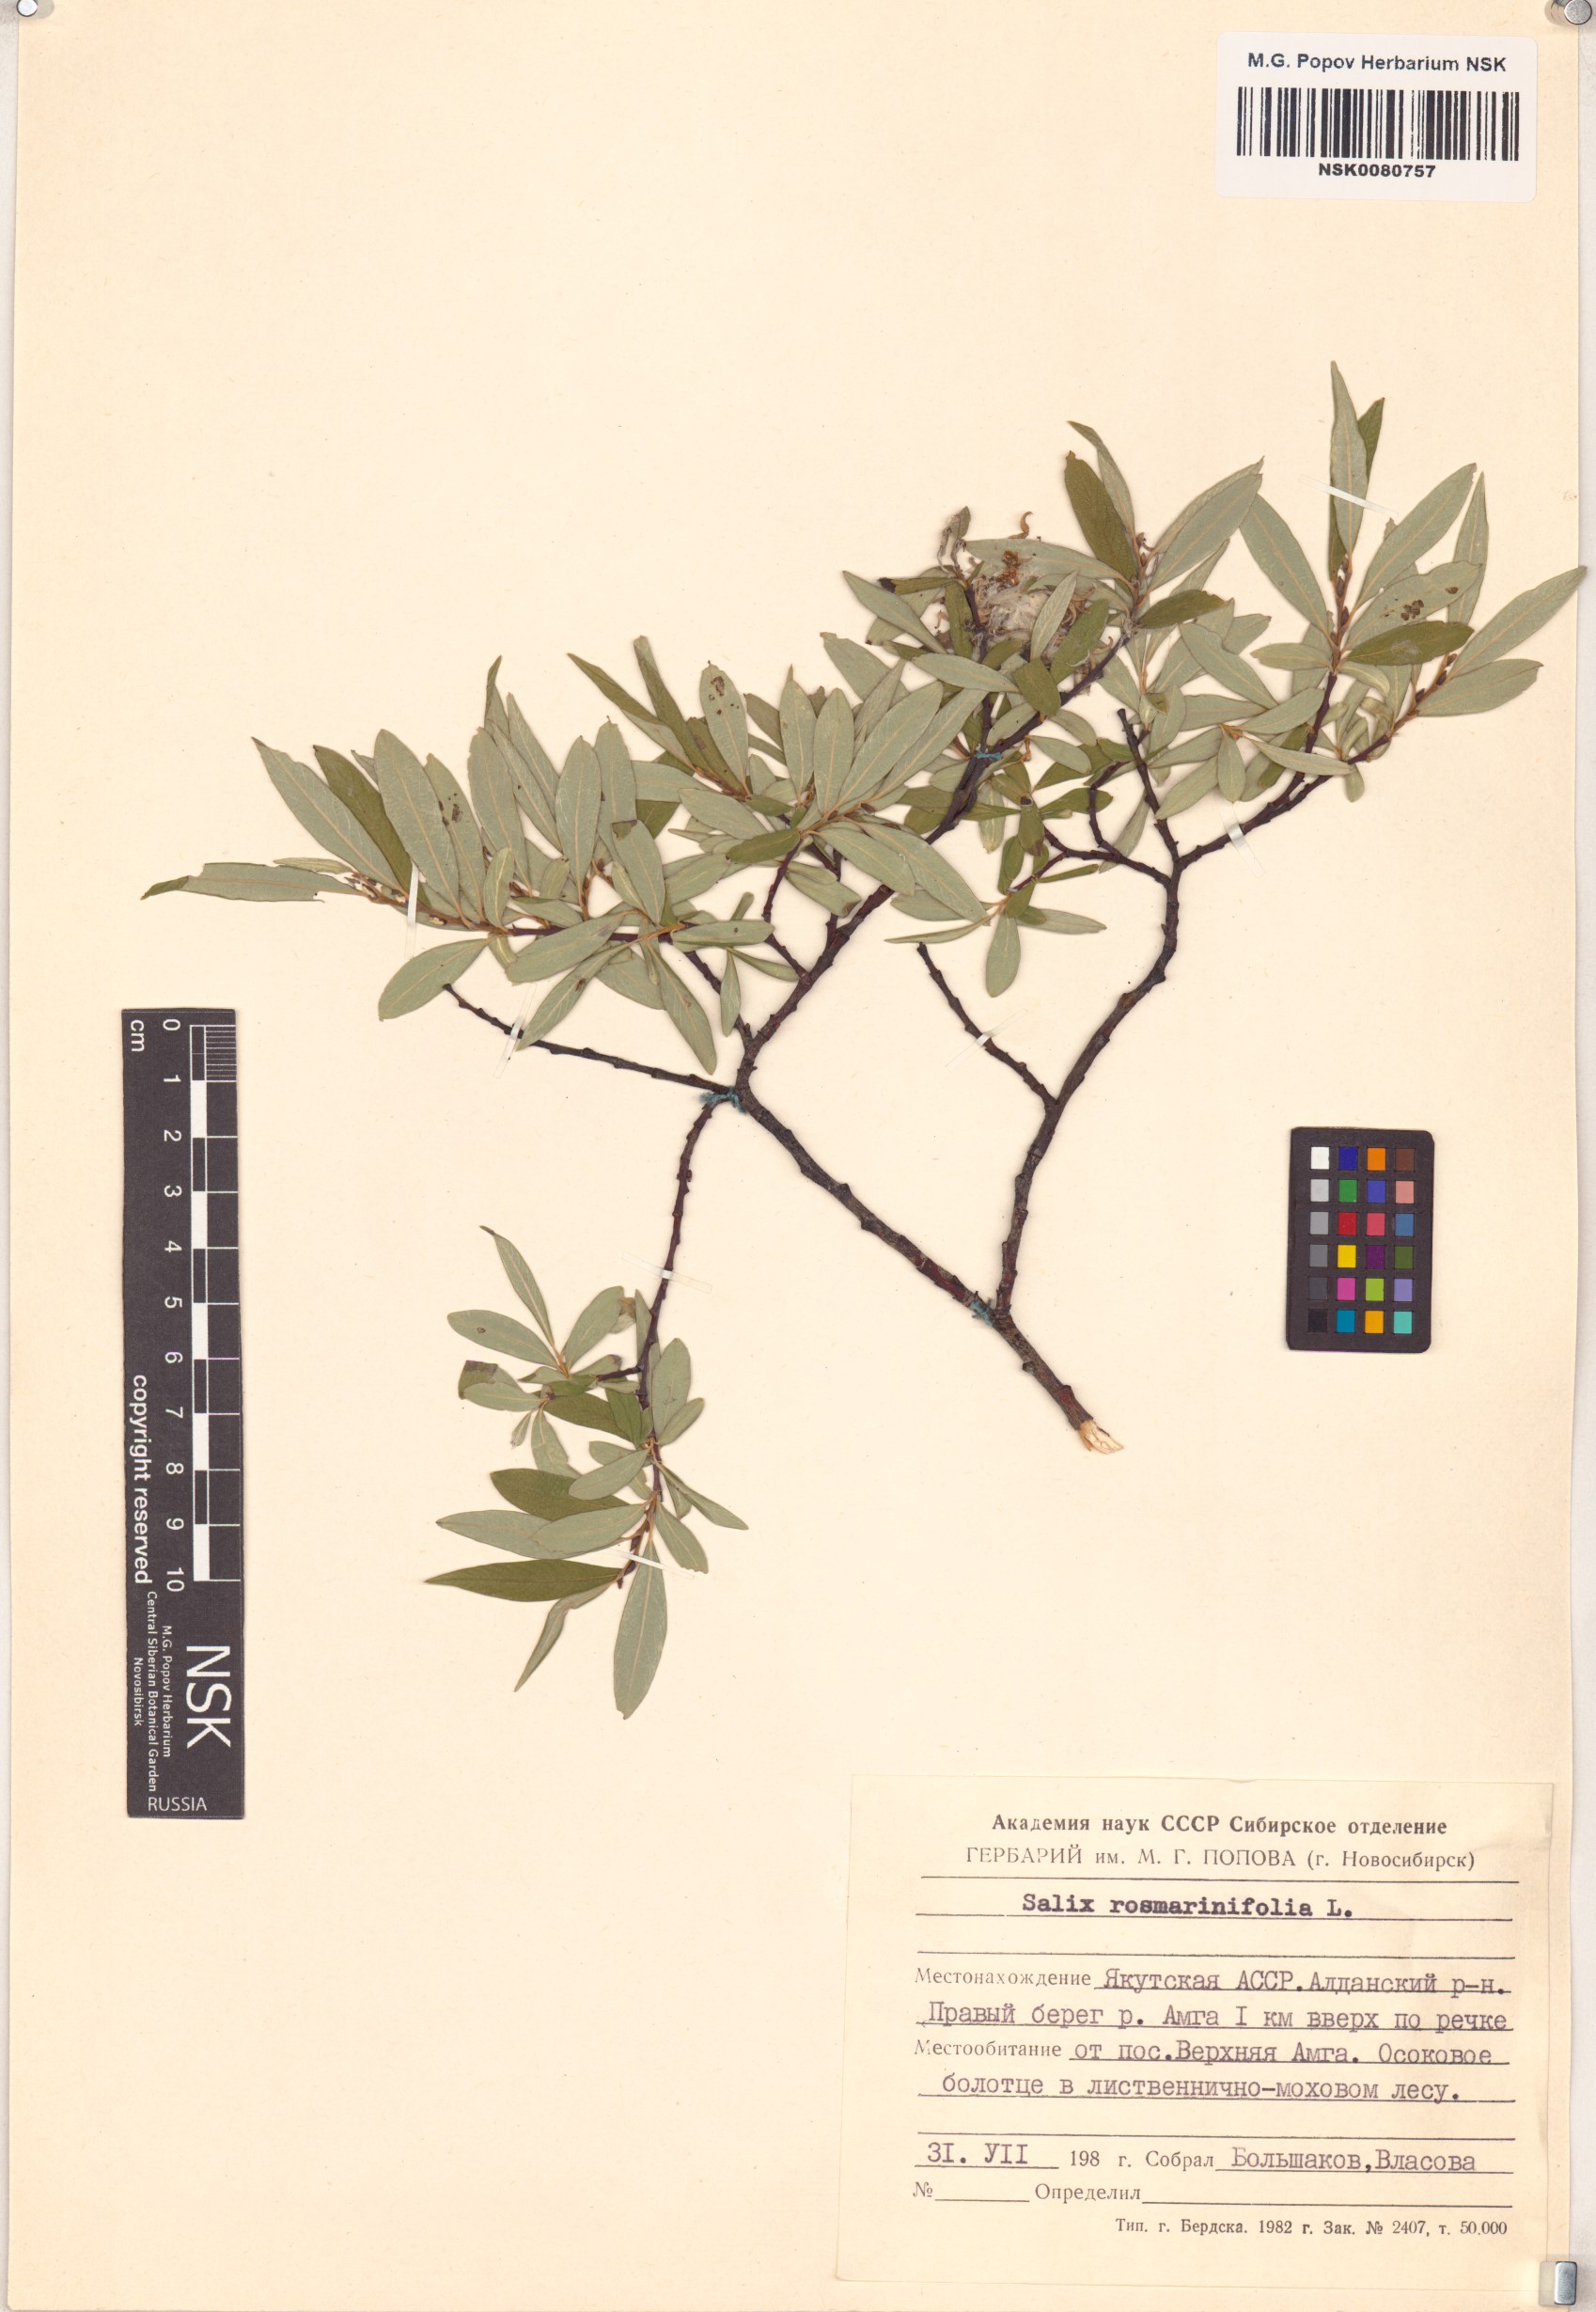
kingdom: Plantae
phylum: Tracheophyta
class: Magnoliopsida
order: Malpighiales
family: Salicaceae
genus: Salix
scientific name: Salix rosmarinifolia
